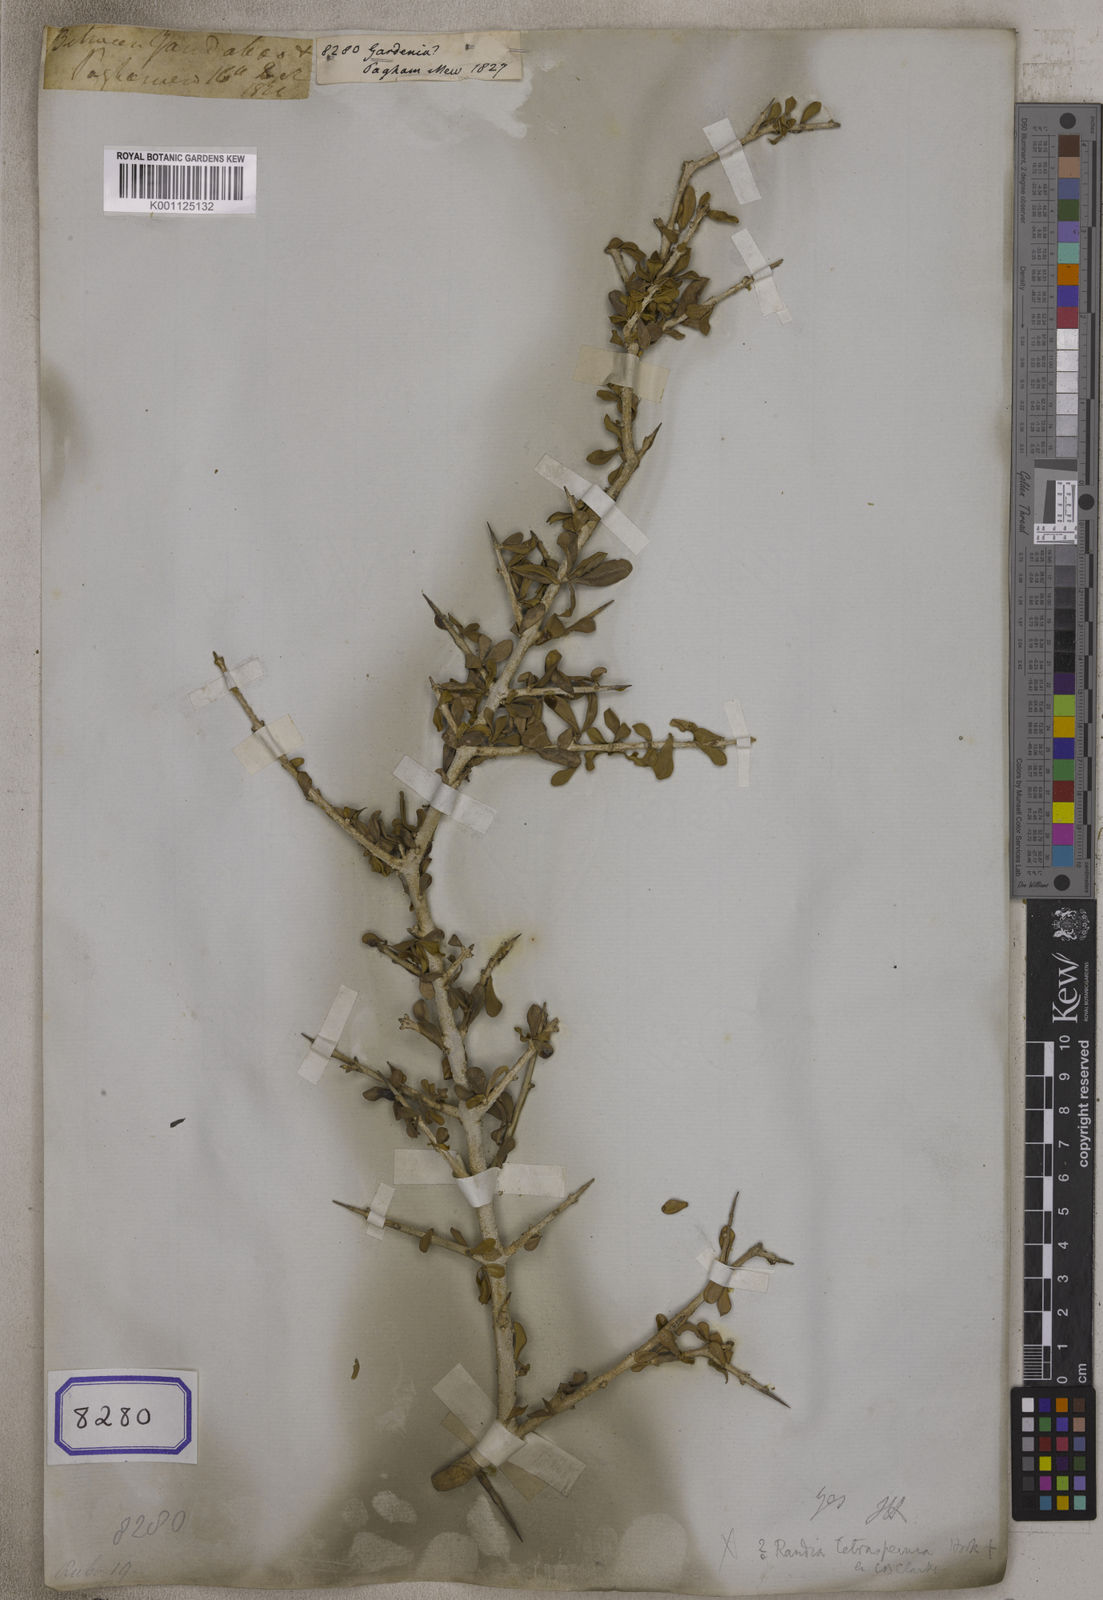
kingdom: Plantae
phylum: Tracheophyta
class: Magnoliopsida
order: Gentianales
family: Rubiaceae
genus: Gardenia
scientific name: Gardenia
